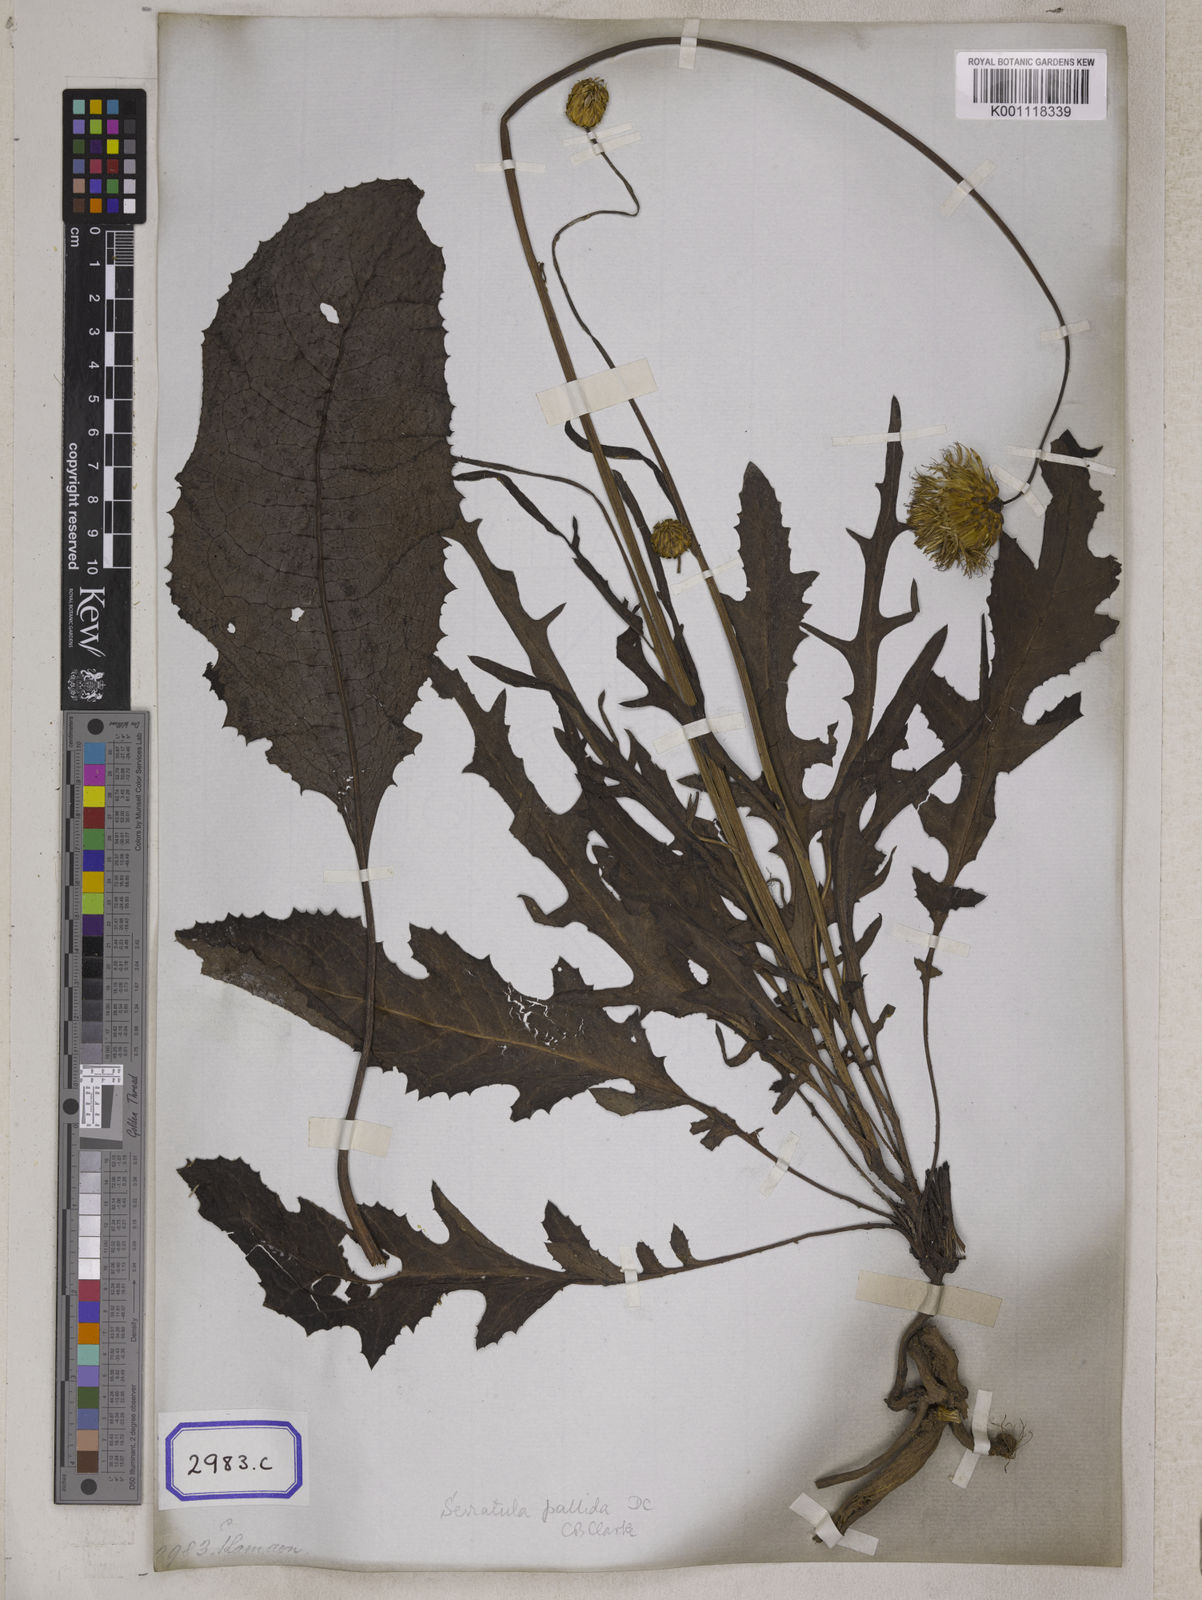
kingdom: Plantae
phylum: Tracheophyta
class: Magnoliopsida
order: Asterales
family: Asteraceae
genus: Centaurea
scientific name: Centaurea
